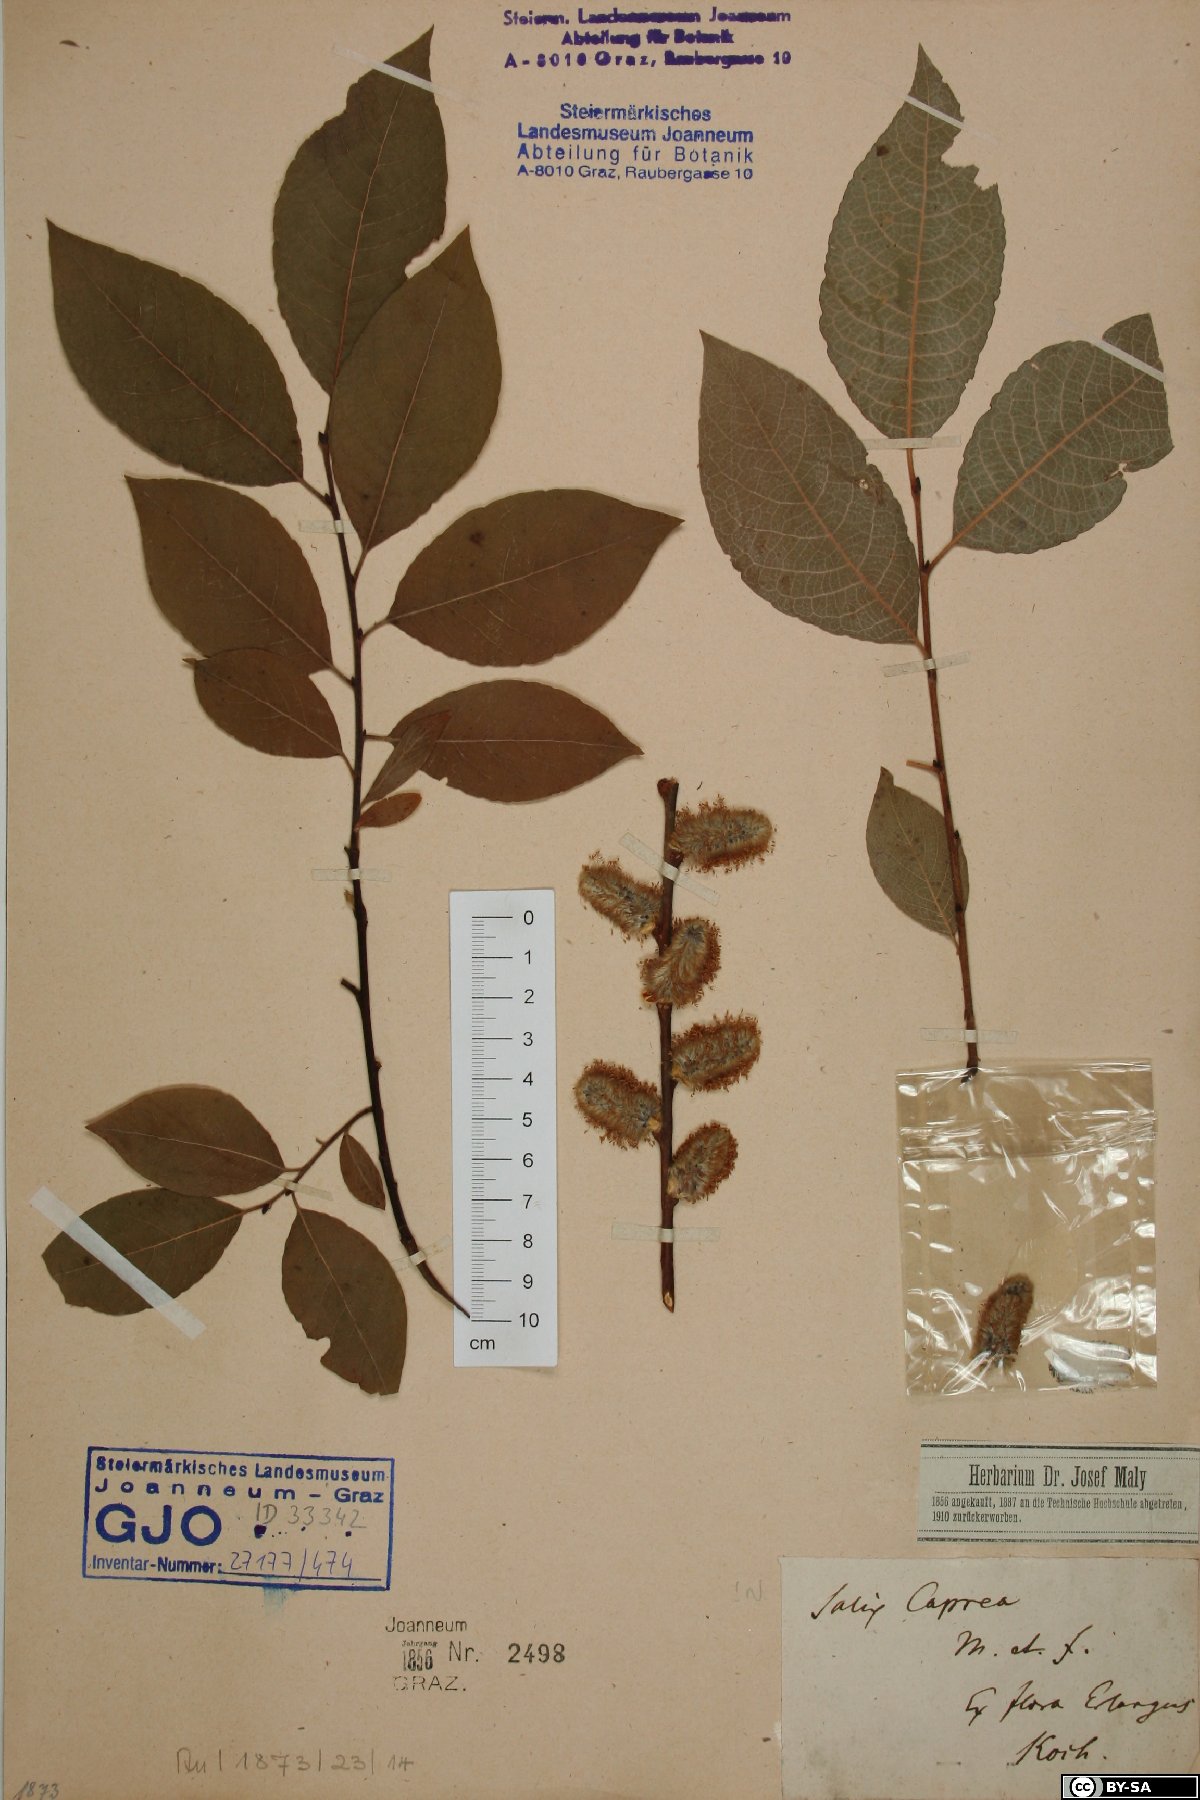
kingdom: Plantae
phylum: Tracheophyta
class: Magnoliopsida
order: Malpighiales
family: Salicaceae
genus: Salix
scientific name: Salix caprea
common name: Goat willow
